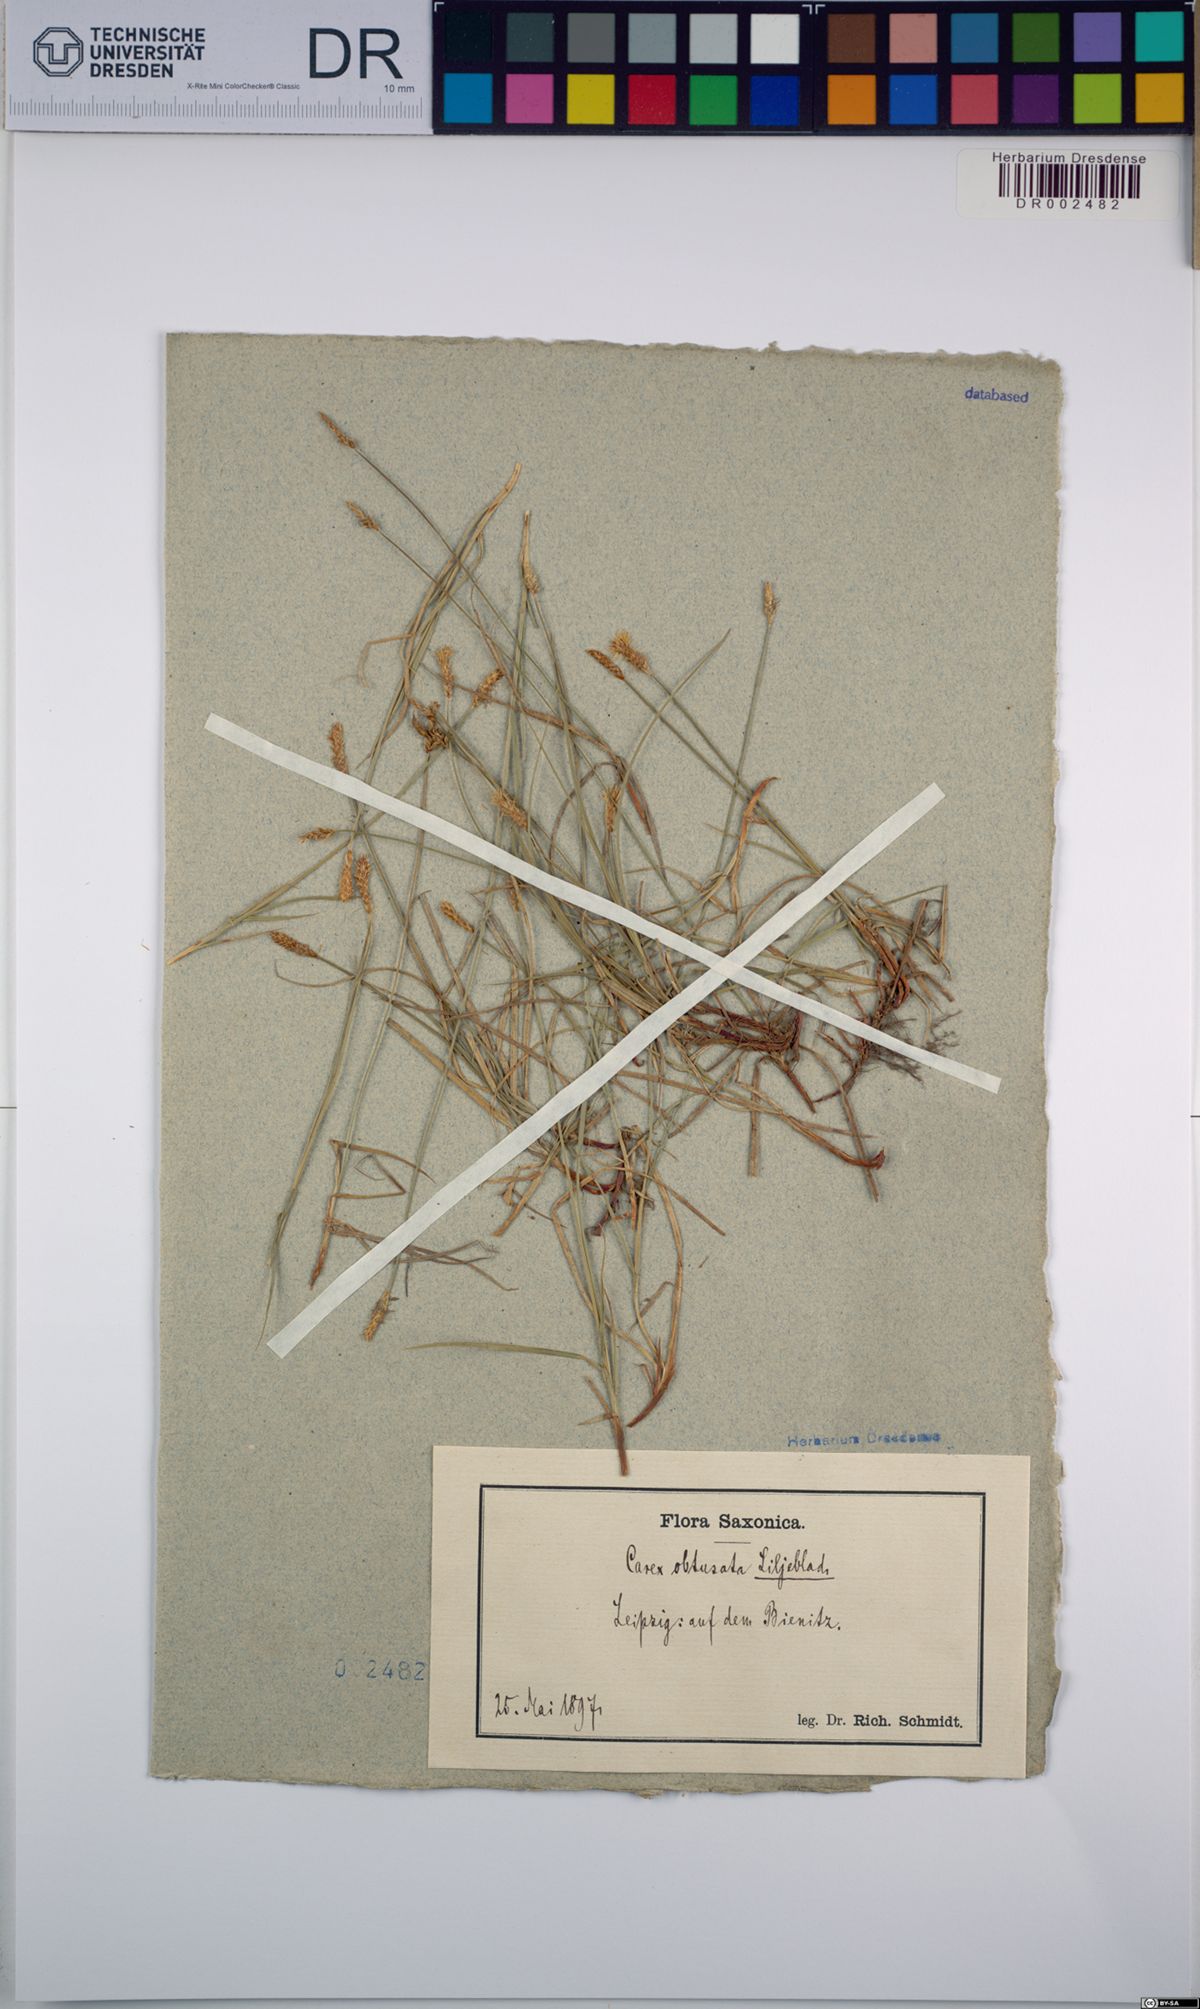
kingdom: Plantae
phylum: Tracheophyta
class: Liliopsida
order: Poales
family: Cyperaceae
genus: Carex
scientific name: Carex obtusata
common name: Blunt sedge
